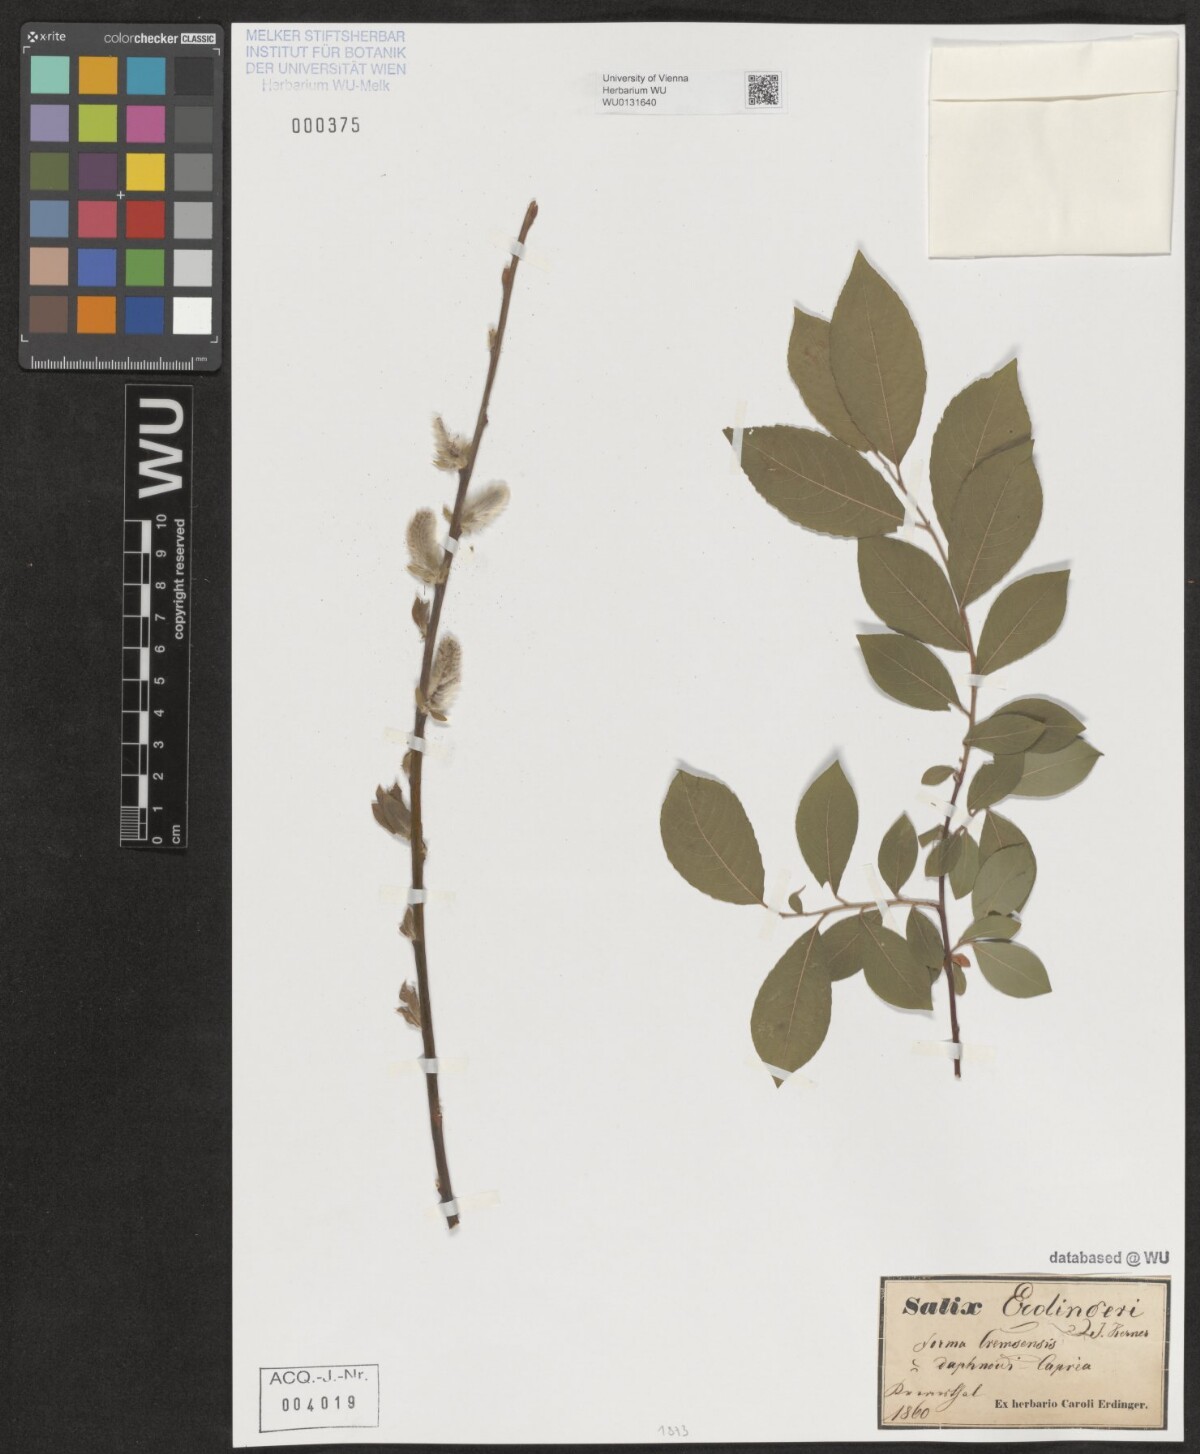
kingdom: Plantae
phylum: Tracheophyta
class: Magnoliopsida
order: Malpighiales
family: Salicaceae
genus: Salix
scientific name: Salix erdingeri
